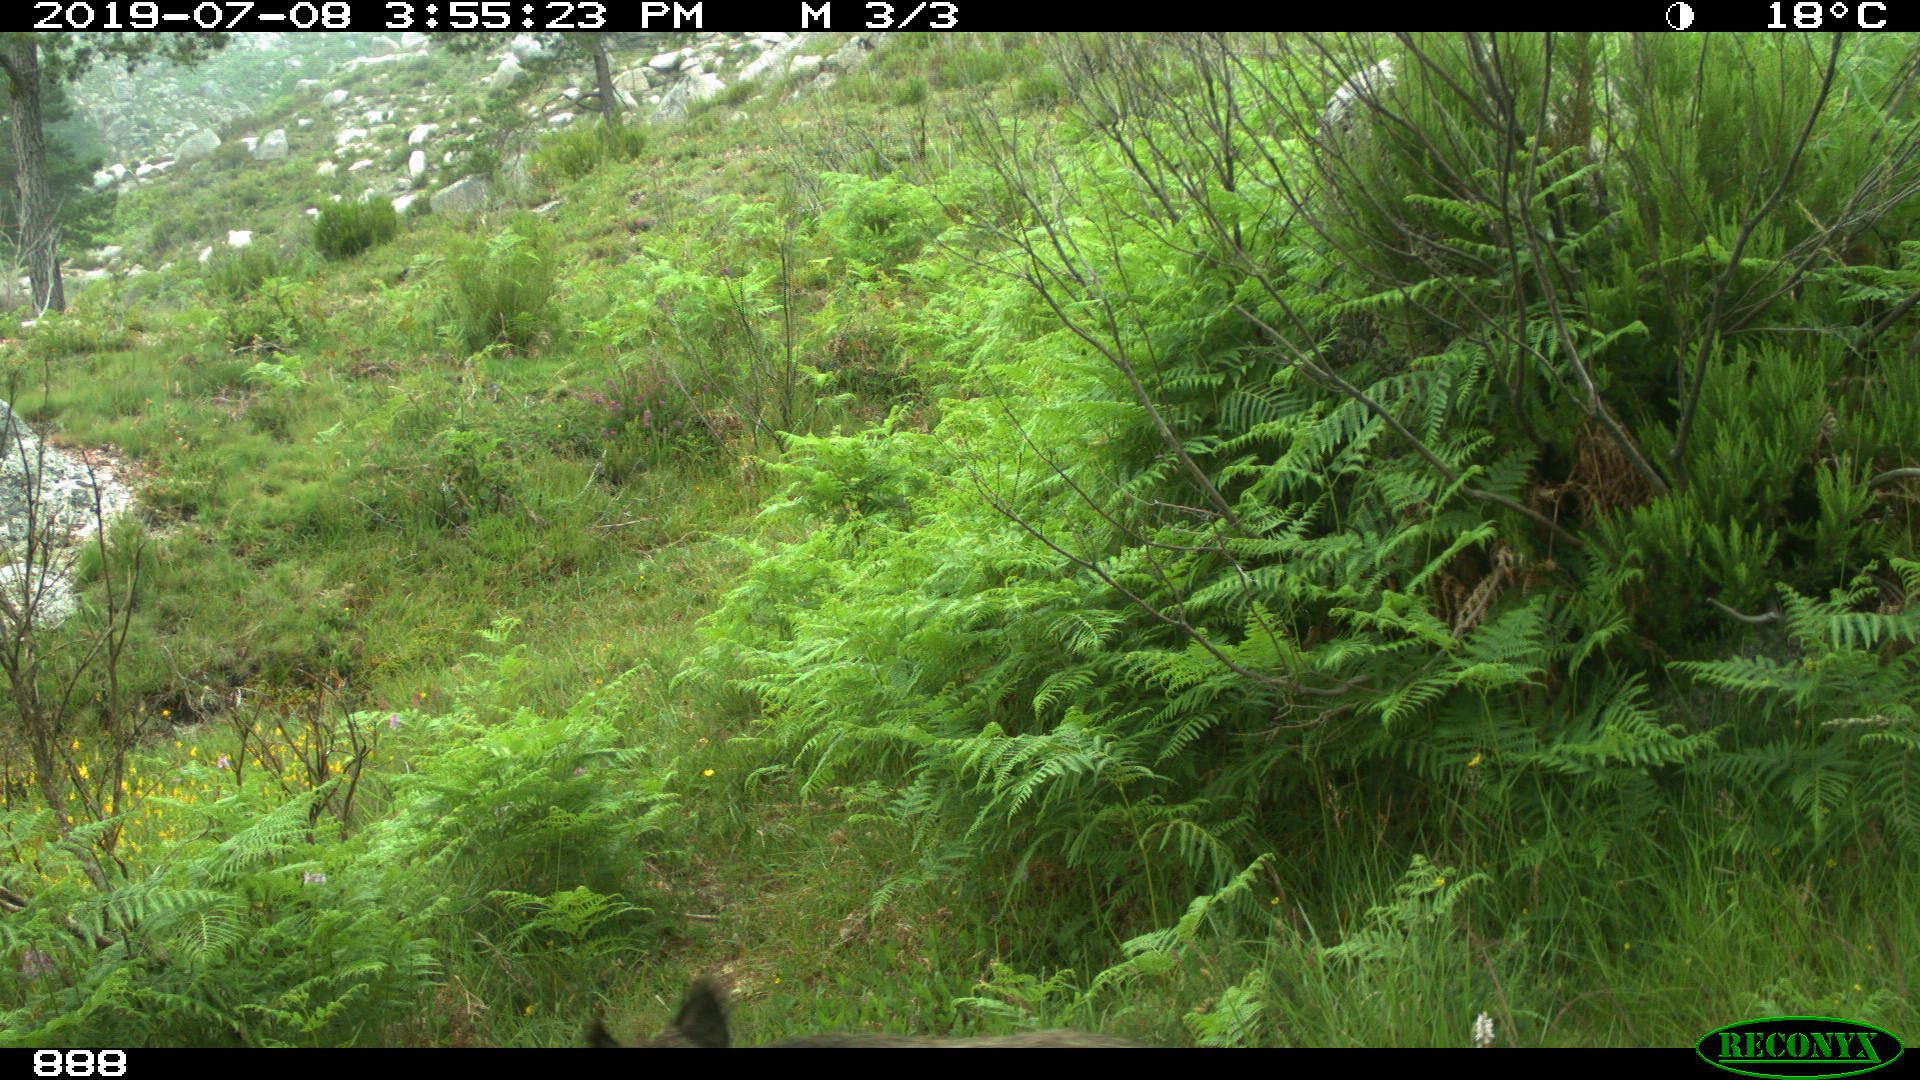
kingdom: Animalia
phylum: Chordata
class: Mammalia
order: Artiodactyla
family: Suidae
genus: Sus
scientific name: Sus scrofa
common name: Wild boar
